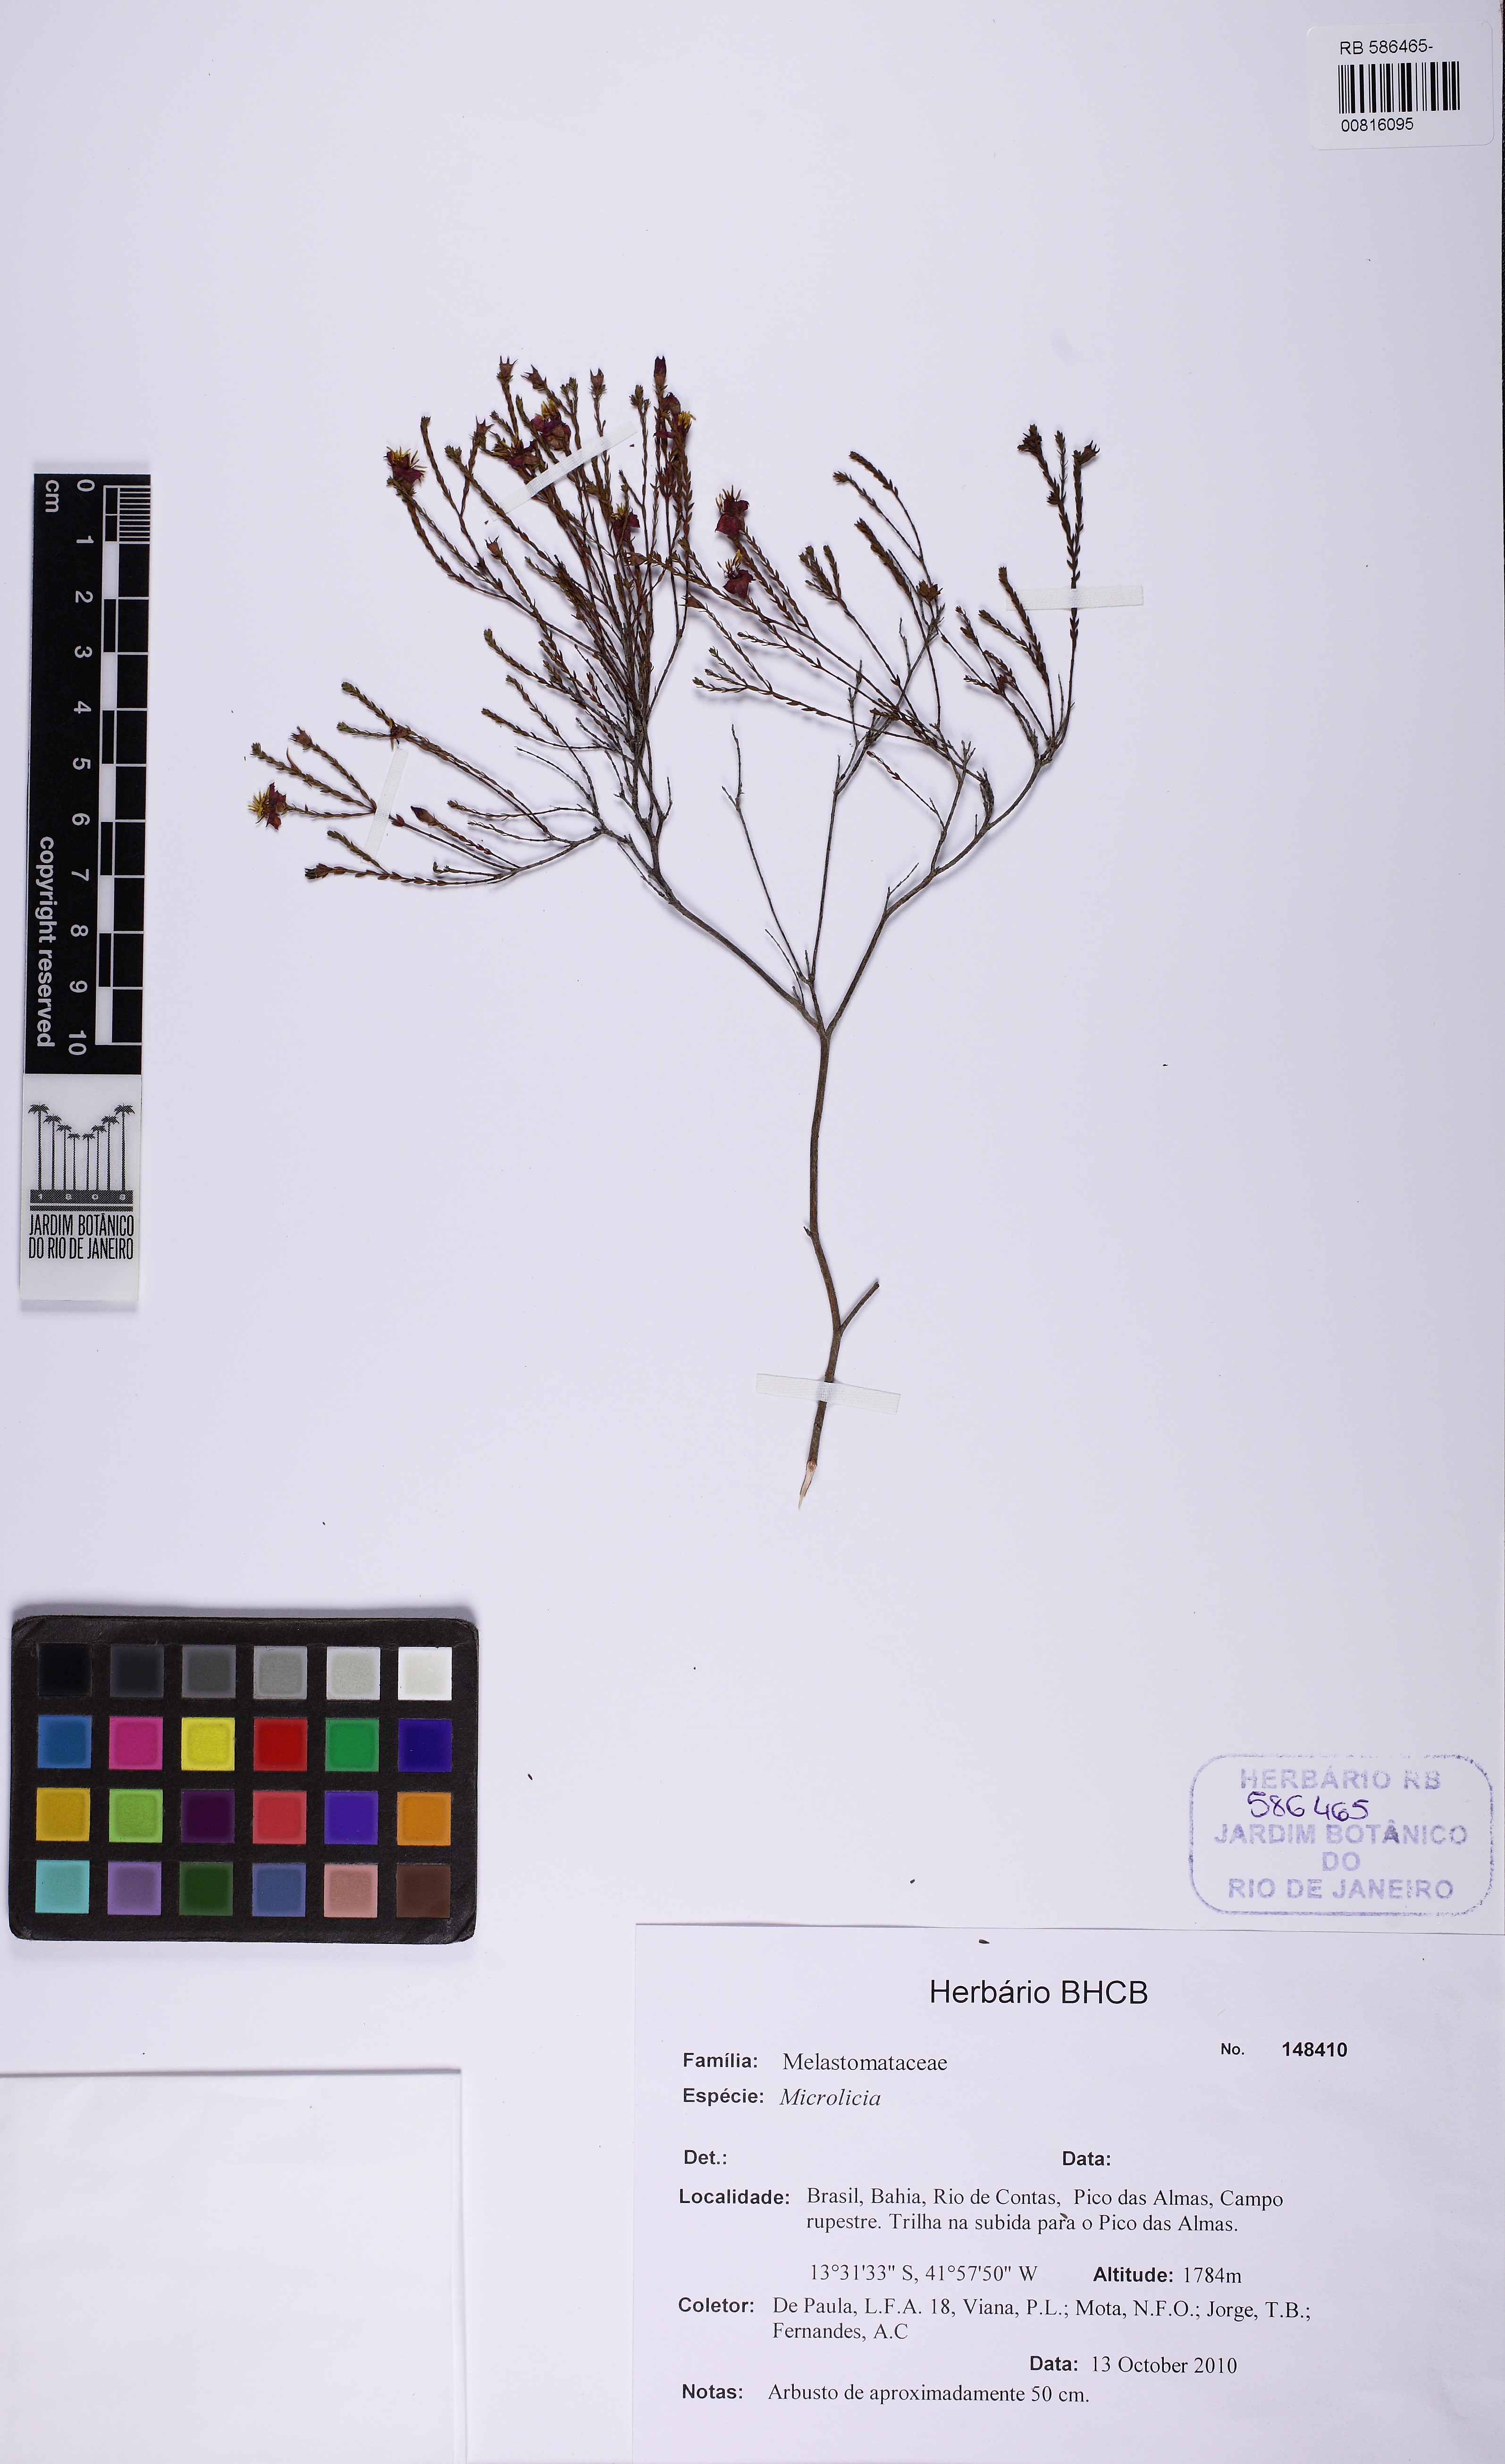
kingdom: Plantae
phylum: Tracheophyta
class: Magnoliopsida
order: Myrtales
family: Melastomataceae
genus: Microlicia
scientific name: Microlicia minima
